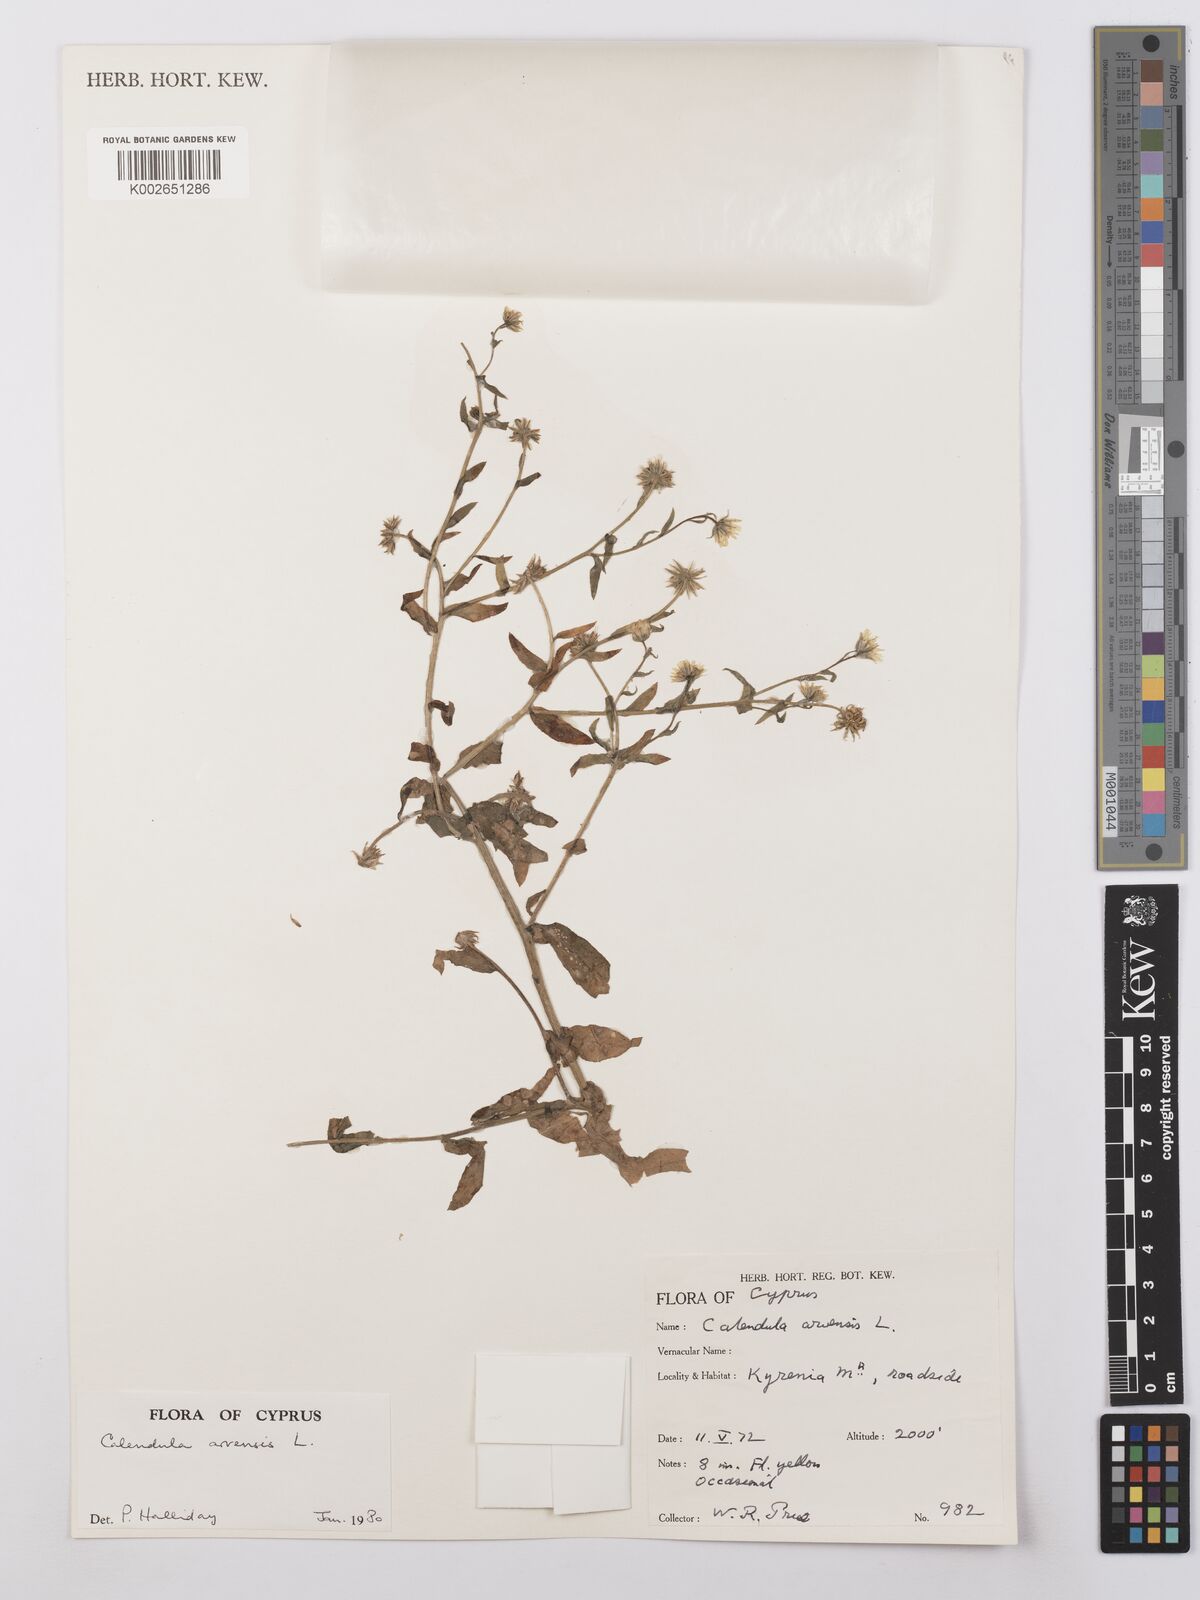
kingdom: Plantae
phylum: Tracheophyta
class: Magnoliopsida
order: Asterales
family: Asteraceae
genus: Calendula
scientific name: Calendula arvensis
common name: Field marigold
